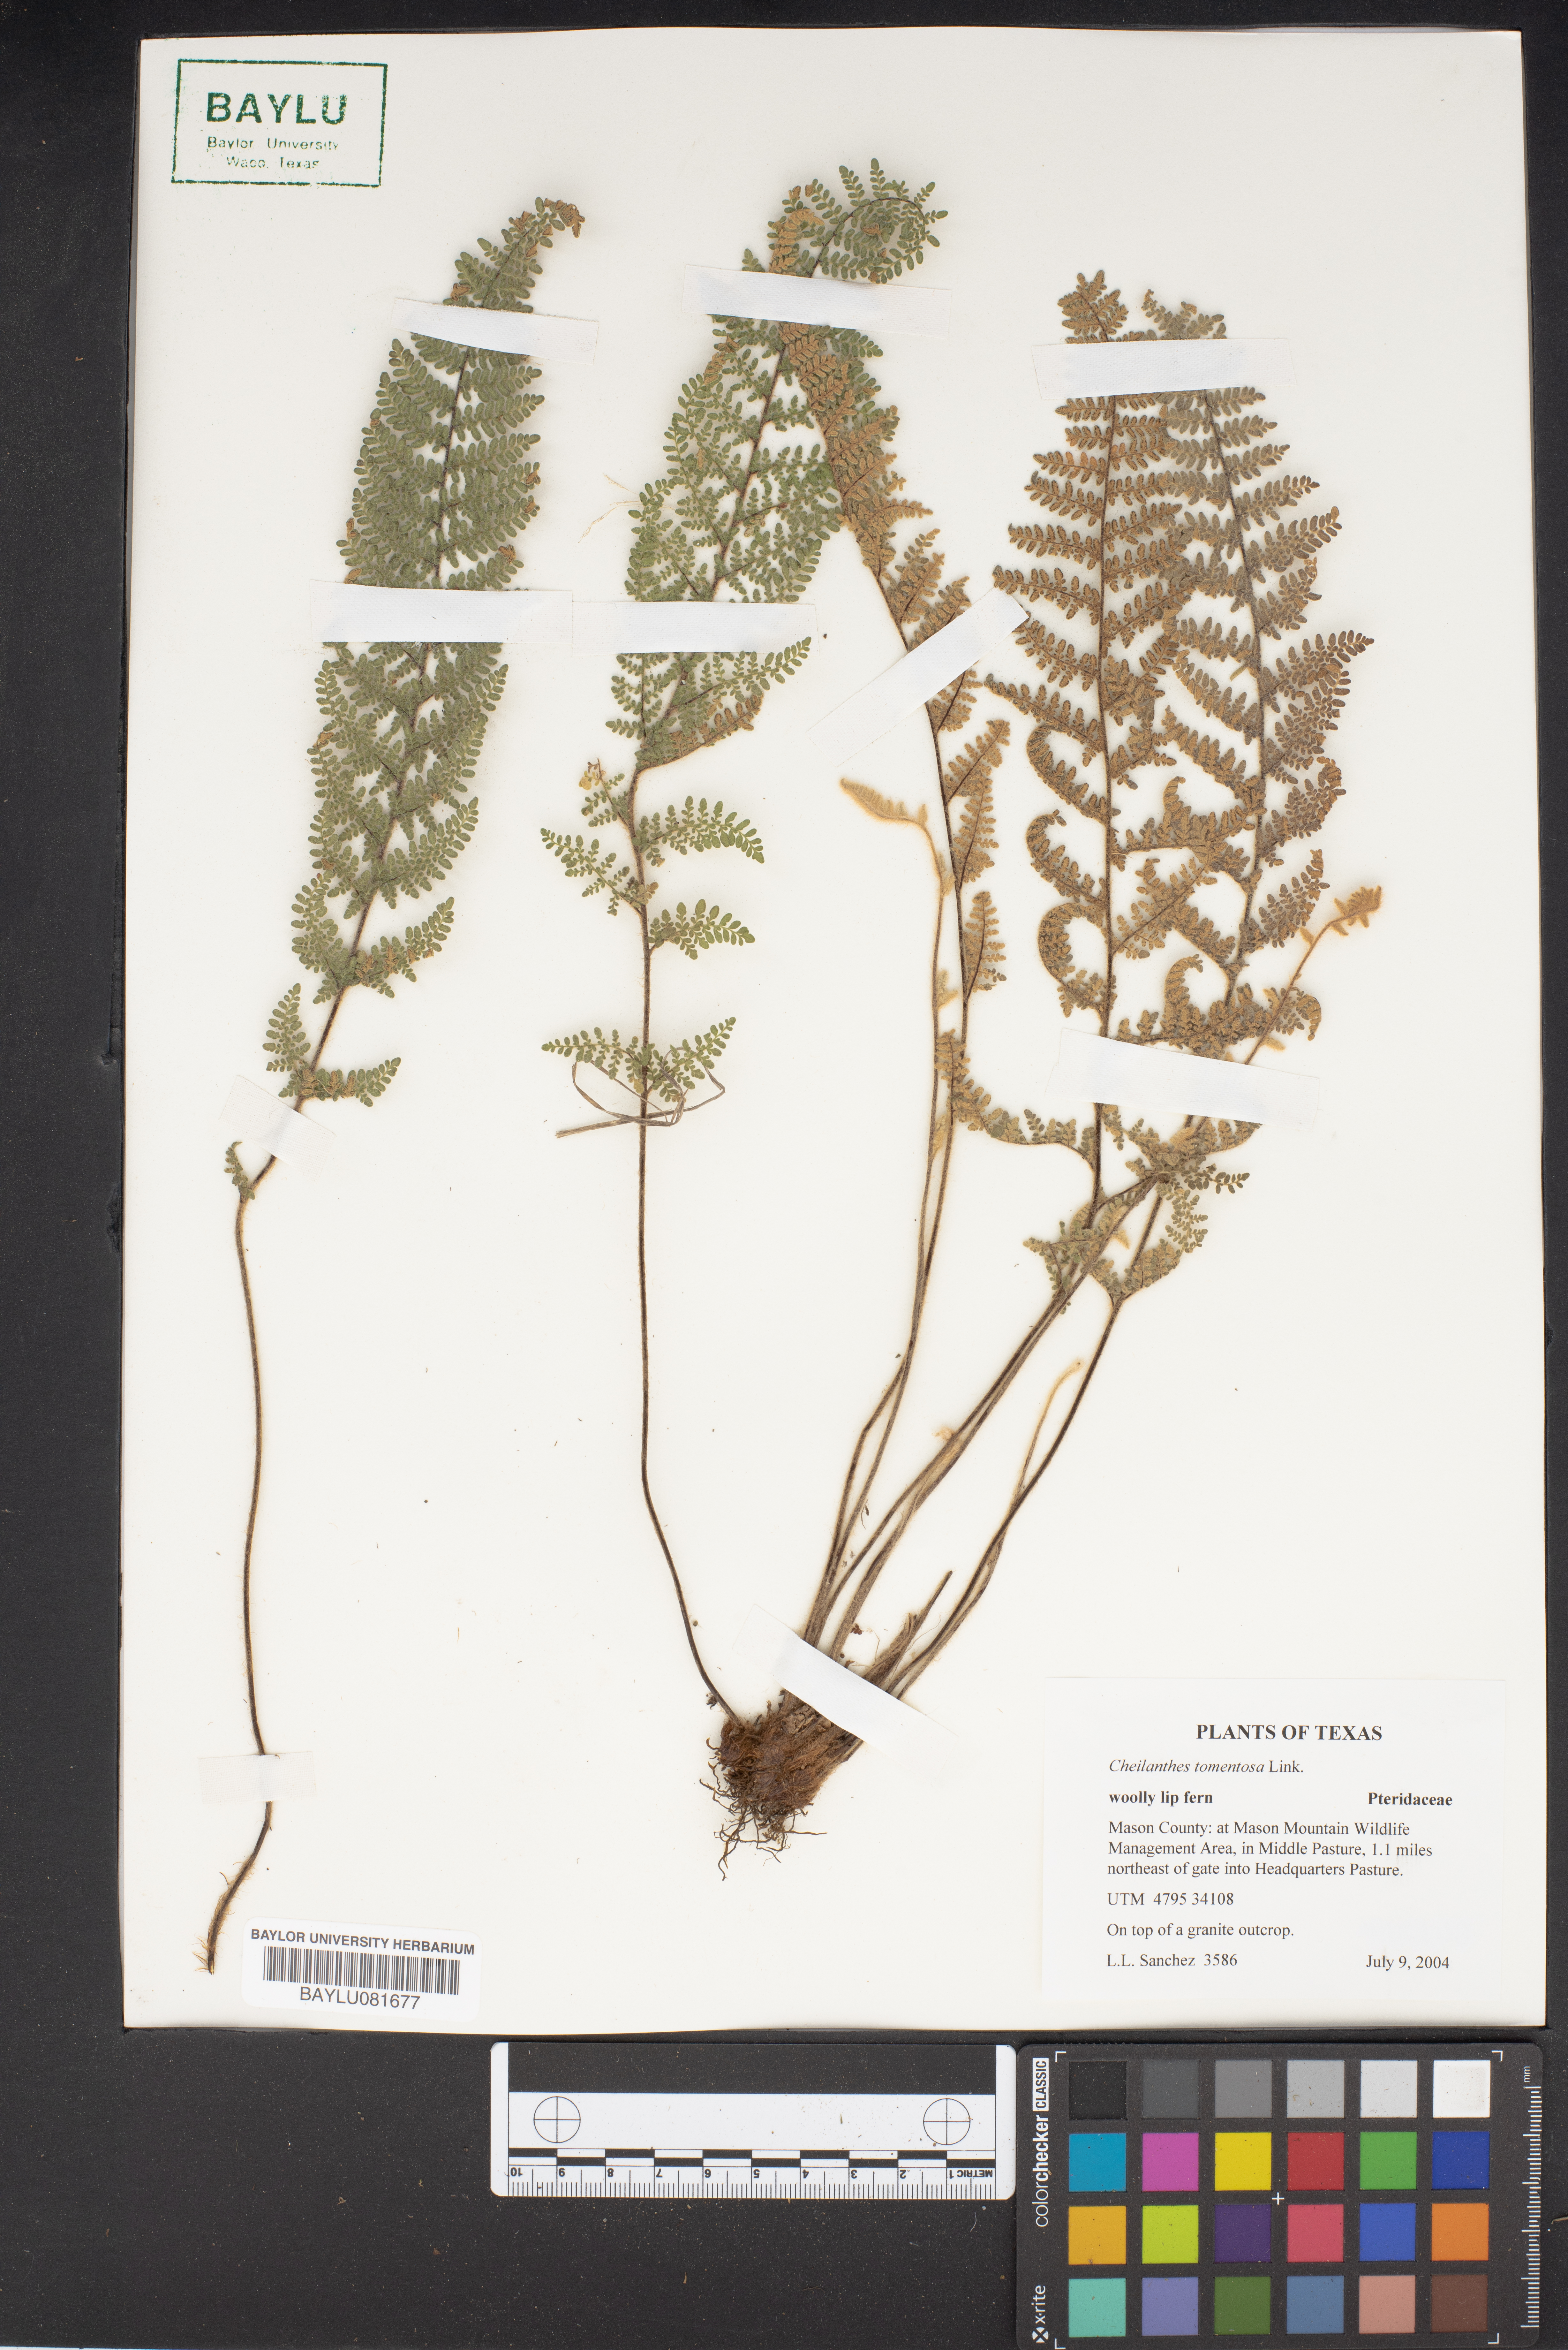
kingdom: Plantae
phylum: Tracheophyta
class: Polypodiopsida
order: Polypodiales
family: Pteridaceae
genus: Myriopteris
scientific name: Myriopteris tomentosa
